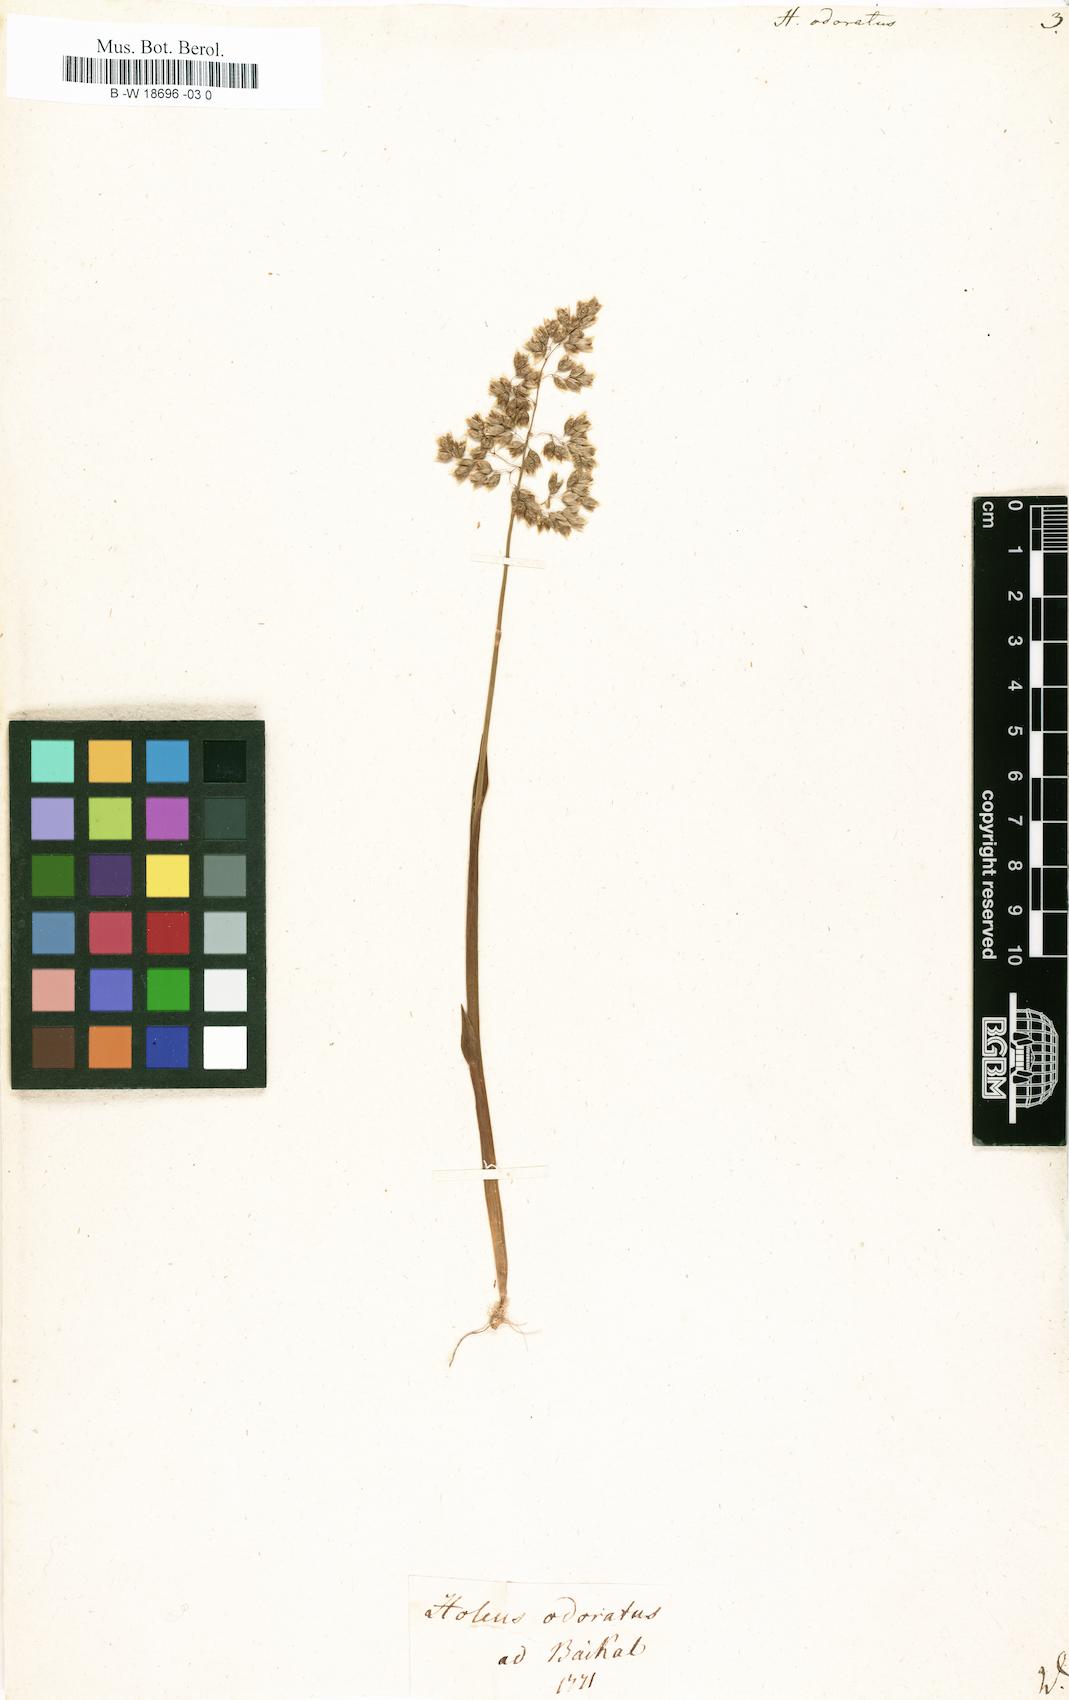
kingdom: Plantae
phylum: Tracheophyta
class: Liliopsida
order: Poales
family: Poaceae
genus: Anthoxanthum
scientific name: Anthoxanthum nitens
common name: Holy grass
